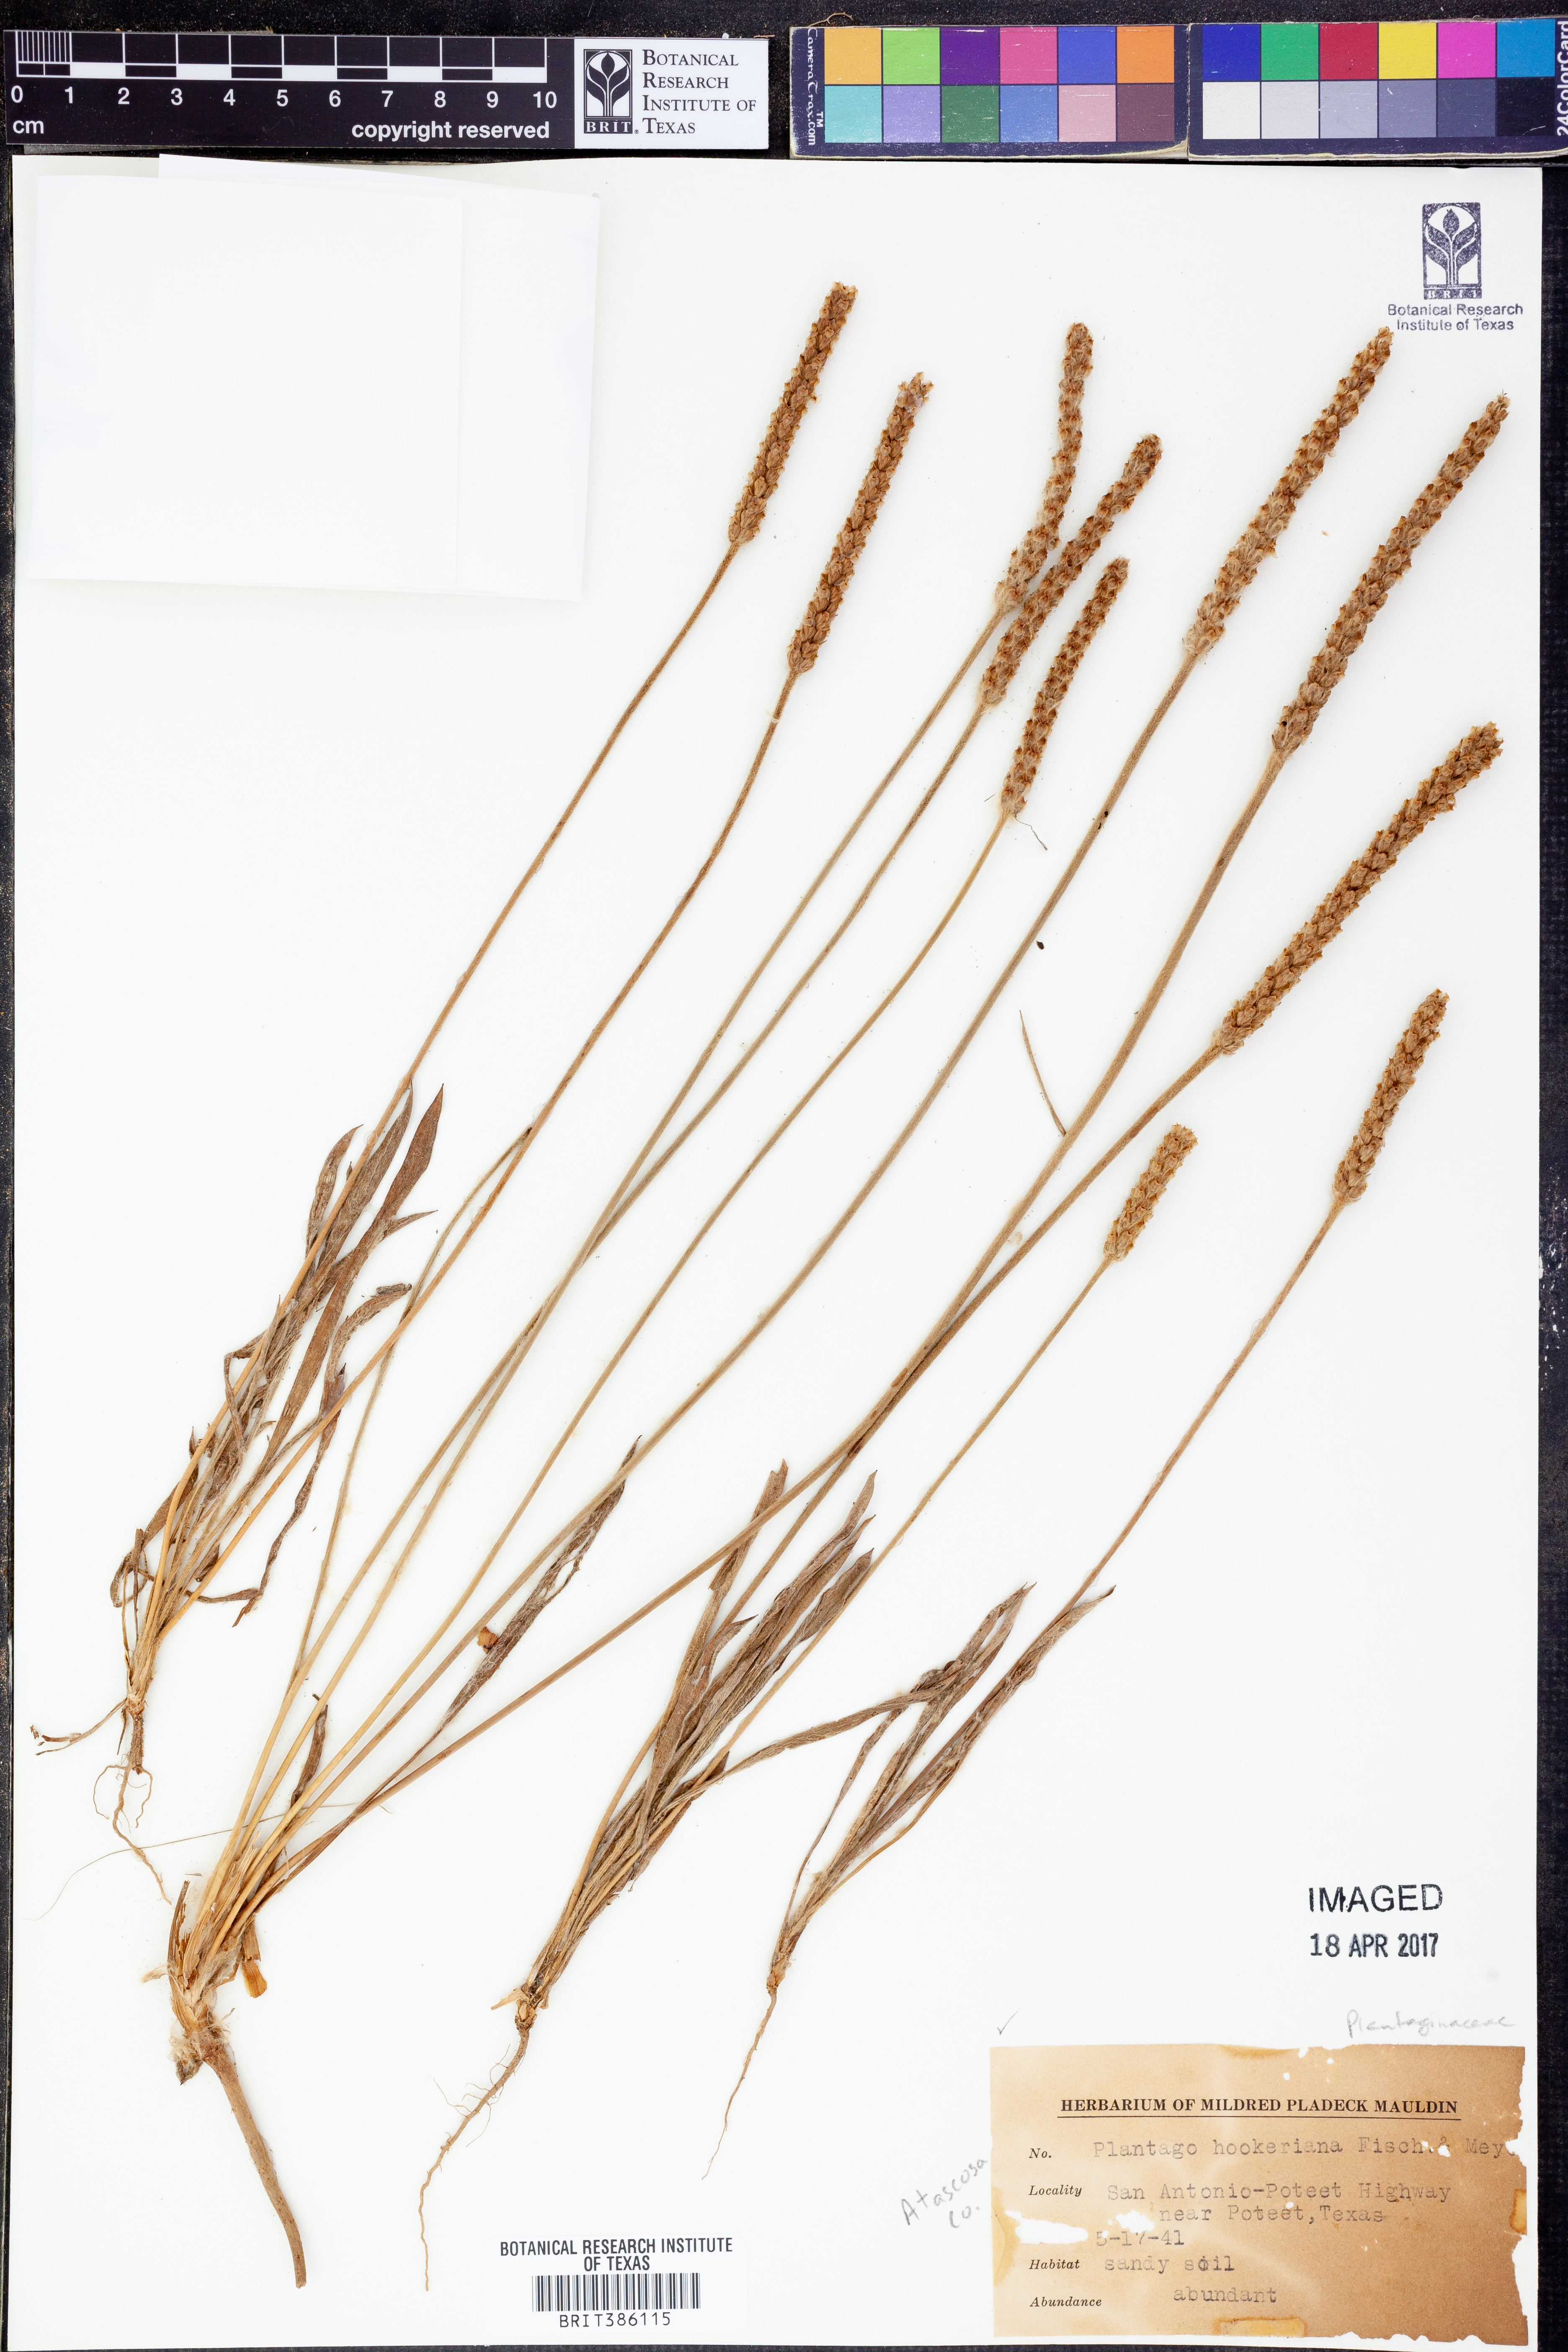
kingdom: Plantae
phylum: Tracheophyta
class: Magnoliopsida
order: Lamiales
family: Plantaginaceae
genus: Plantago
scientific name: Plantago hookeriana
